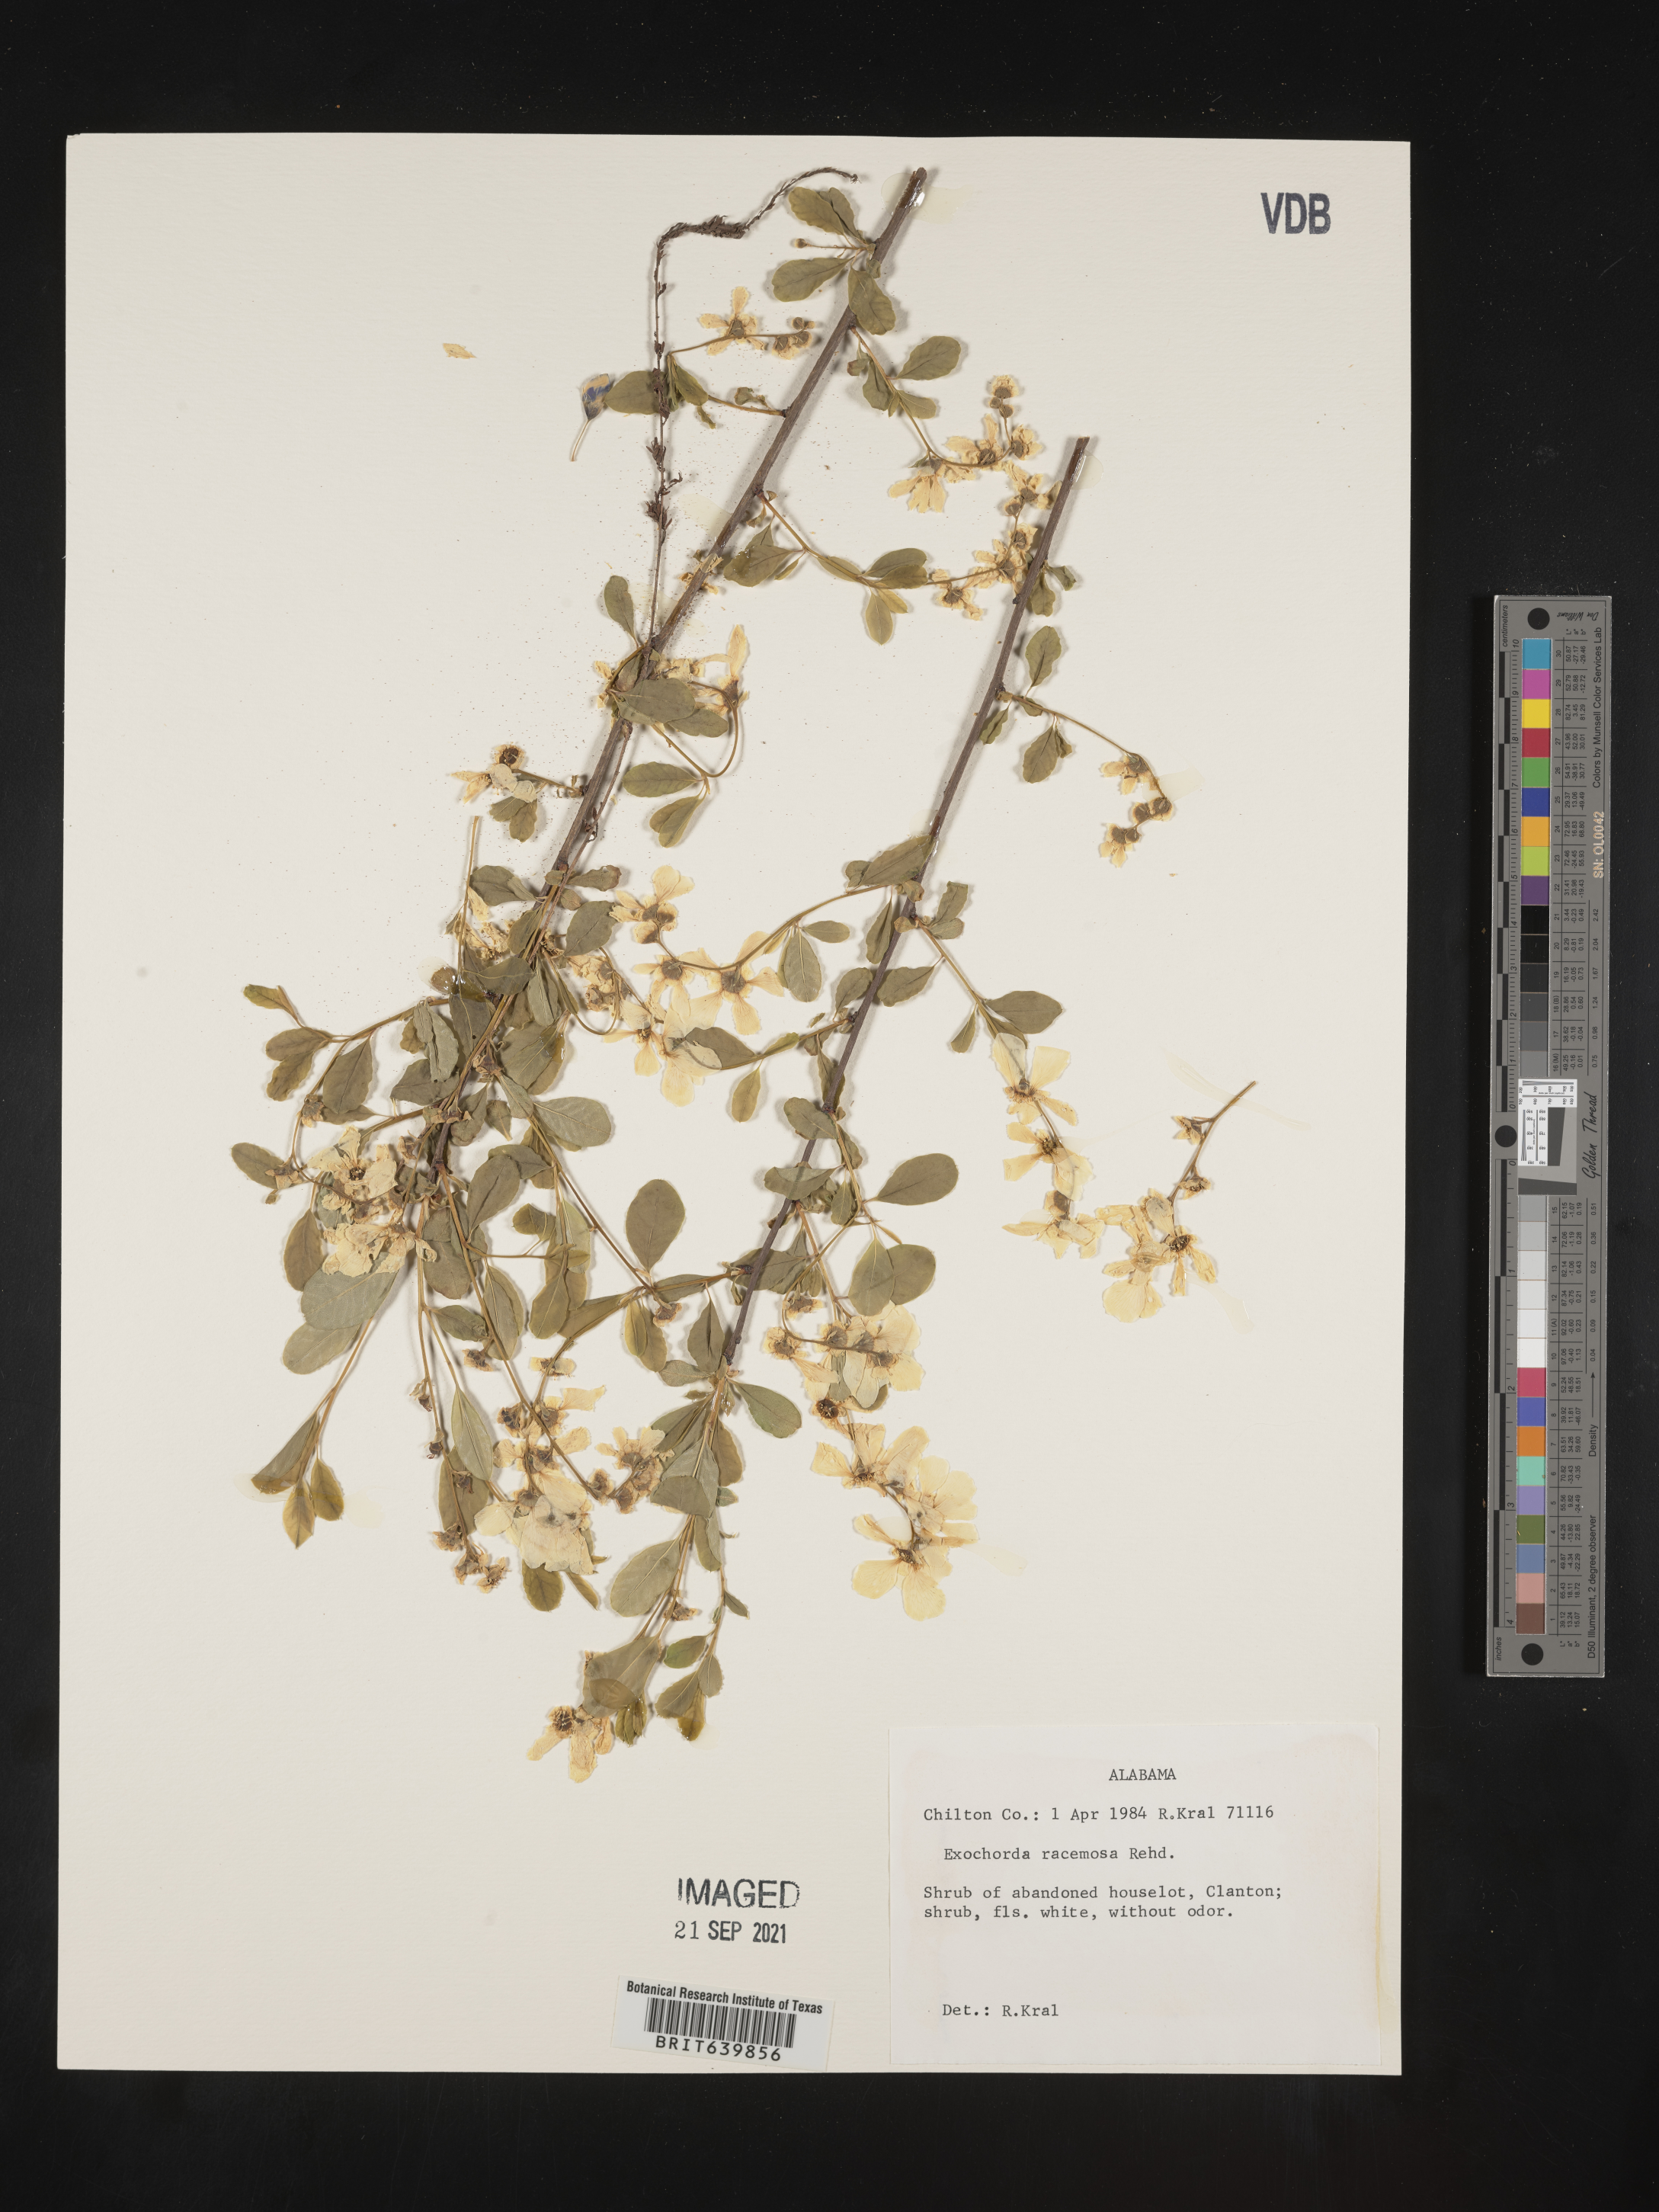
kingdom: Plantae
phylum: Tracheophyta
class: Magnoliopsida
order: Rosales
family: Rosaceae
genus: Exochorda
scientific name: Exochorda
